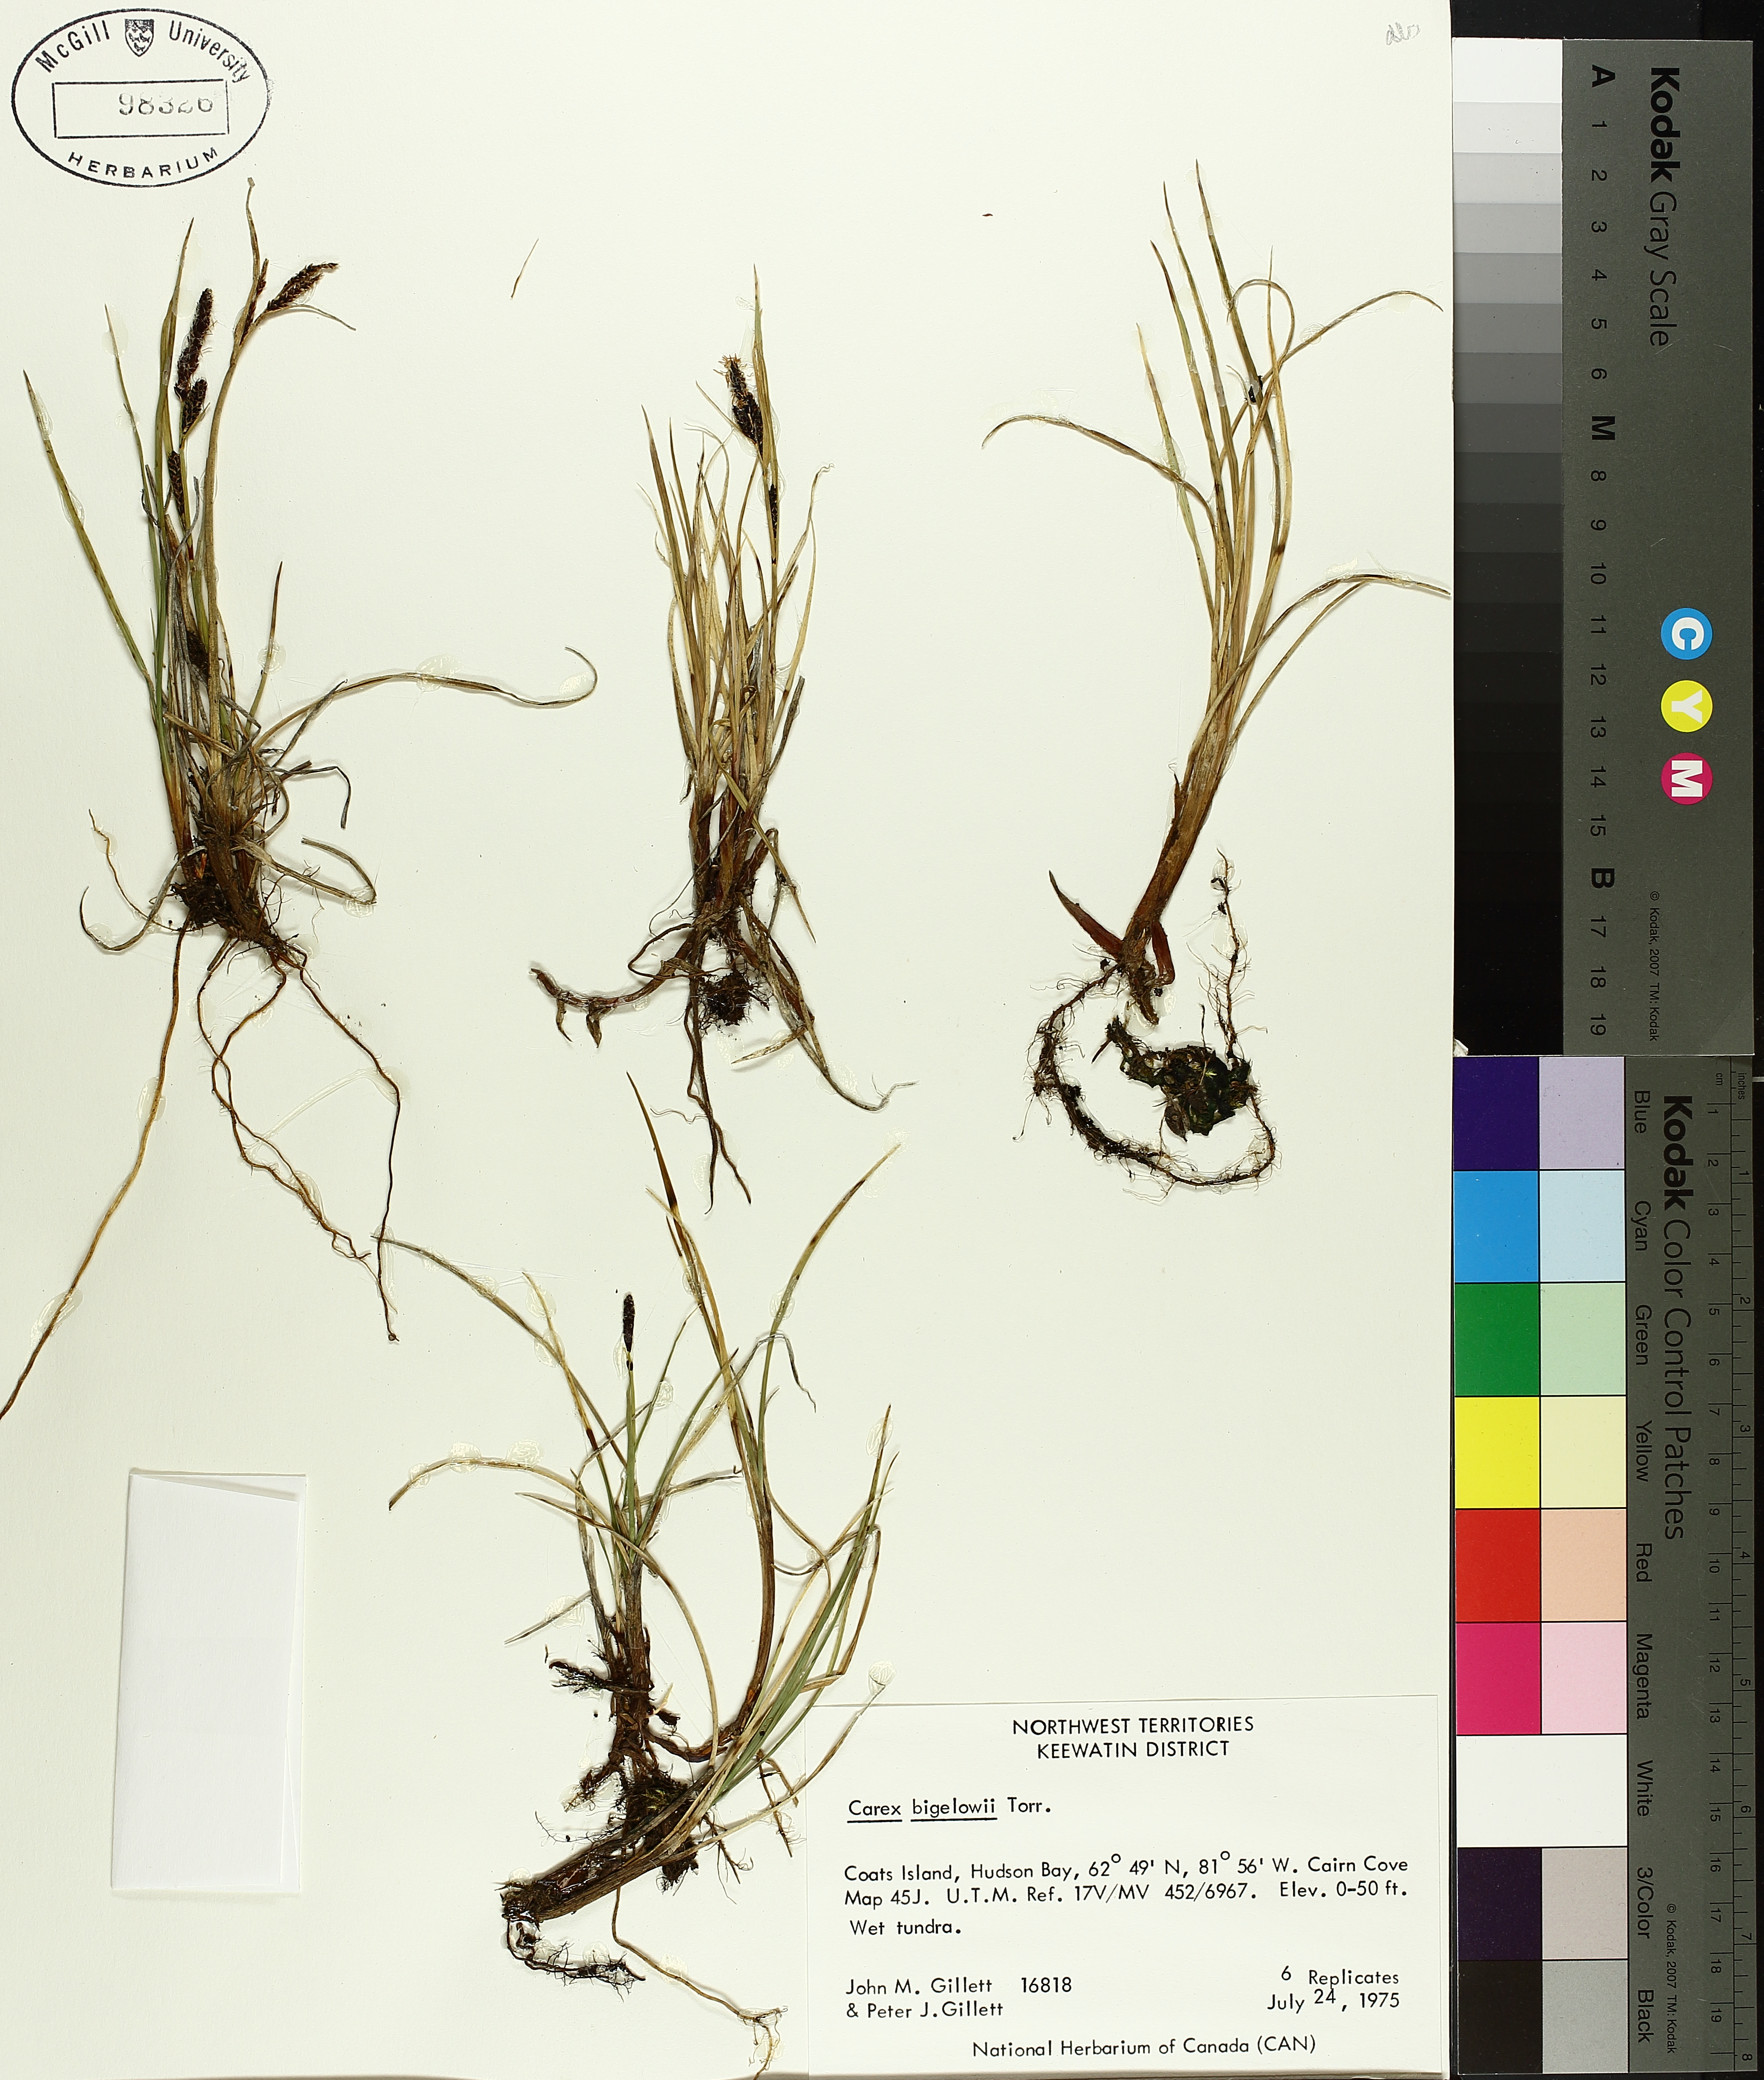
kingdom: Plantae
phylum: Tracheophyta
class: Liliopsida
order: Poales
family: Cyperaceae
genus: Carex
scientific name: Carex bigelowii
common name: Stiff sedge
